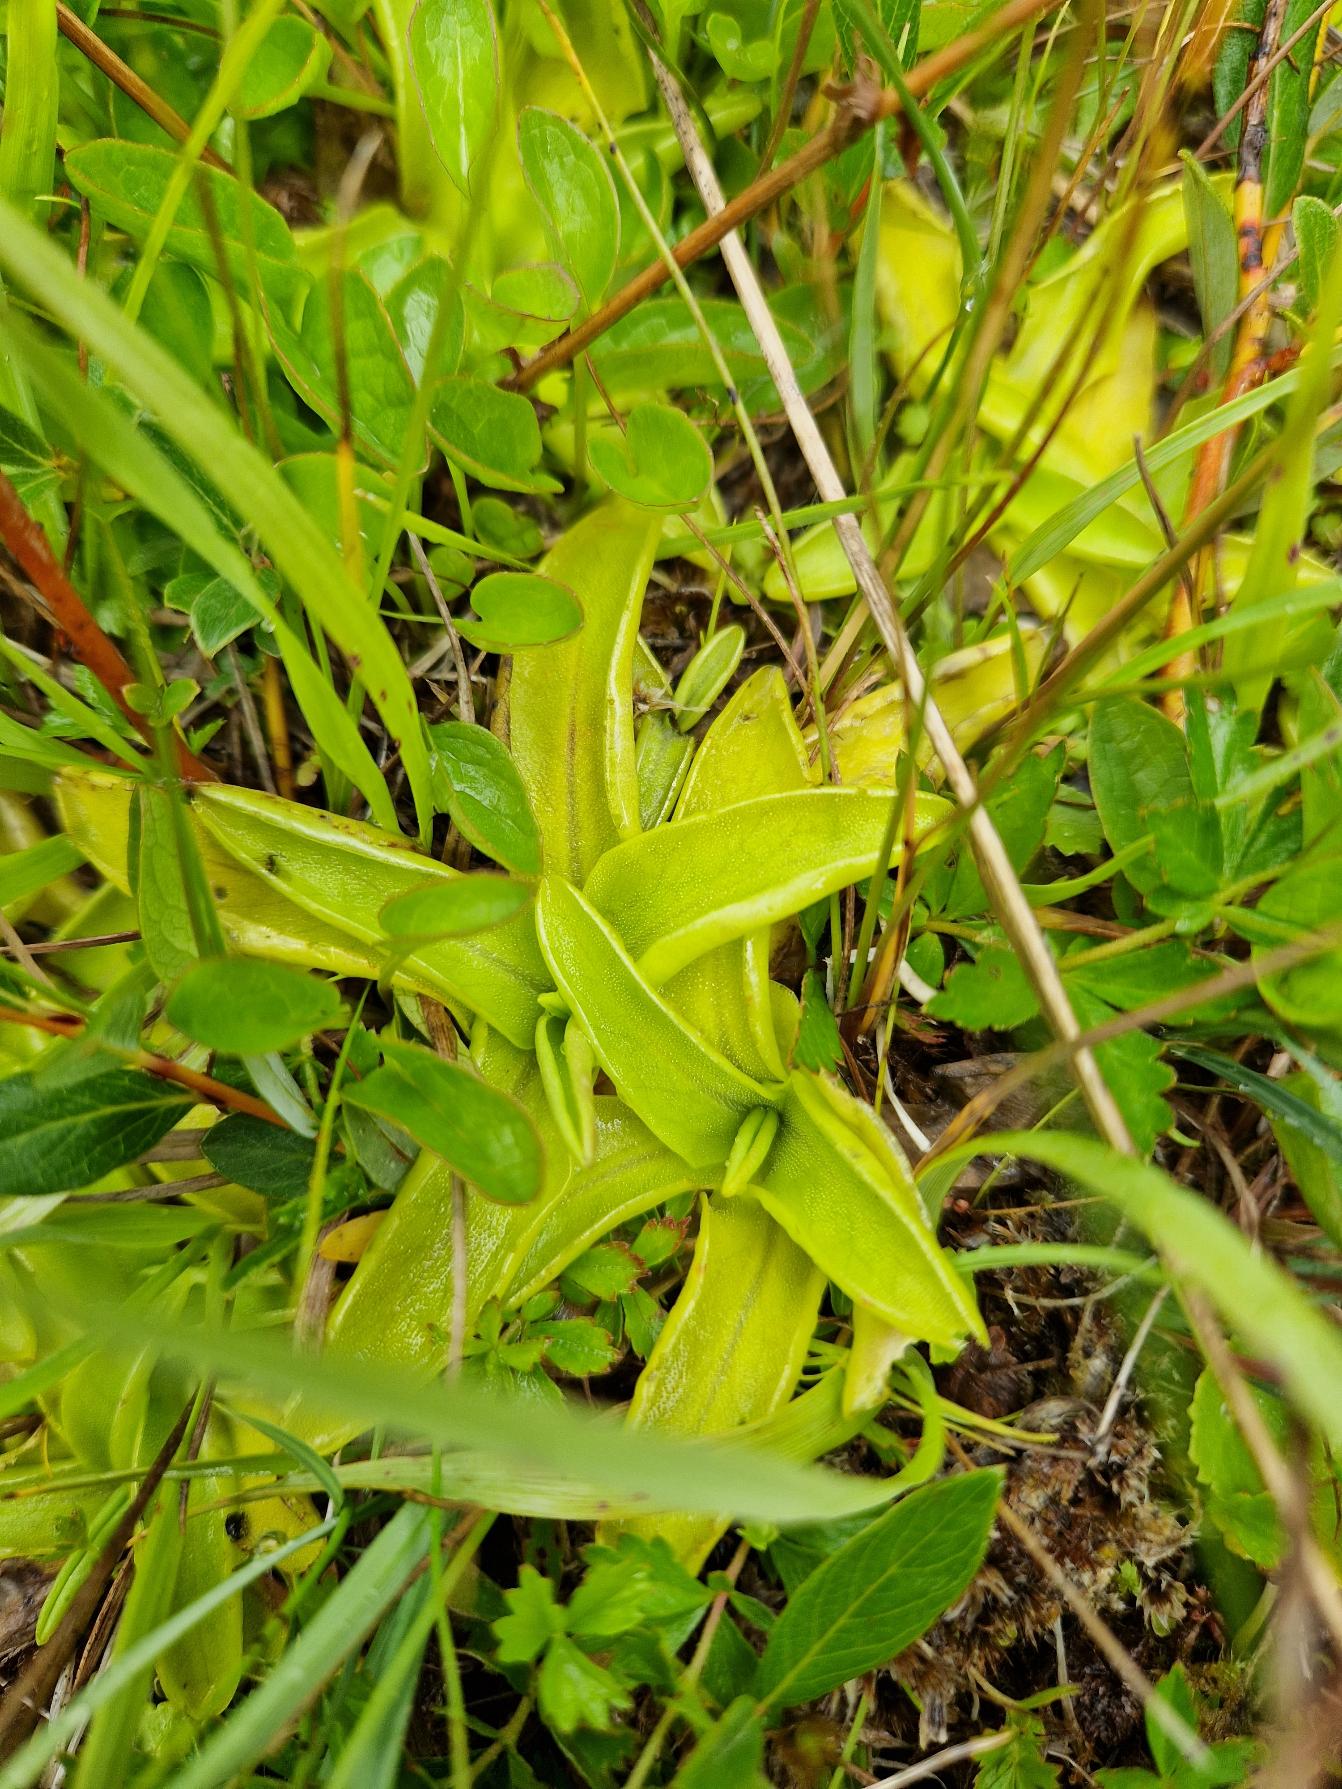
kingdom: Plantae
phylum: Tracheophyta
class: Magnoliopsida
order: Lamiales
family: Lentibulariaceae
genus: Pinguicula
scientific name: Pinguicula vulgaris
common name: Vibefedt
